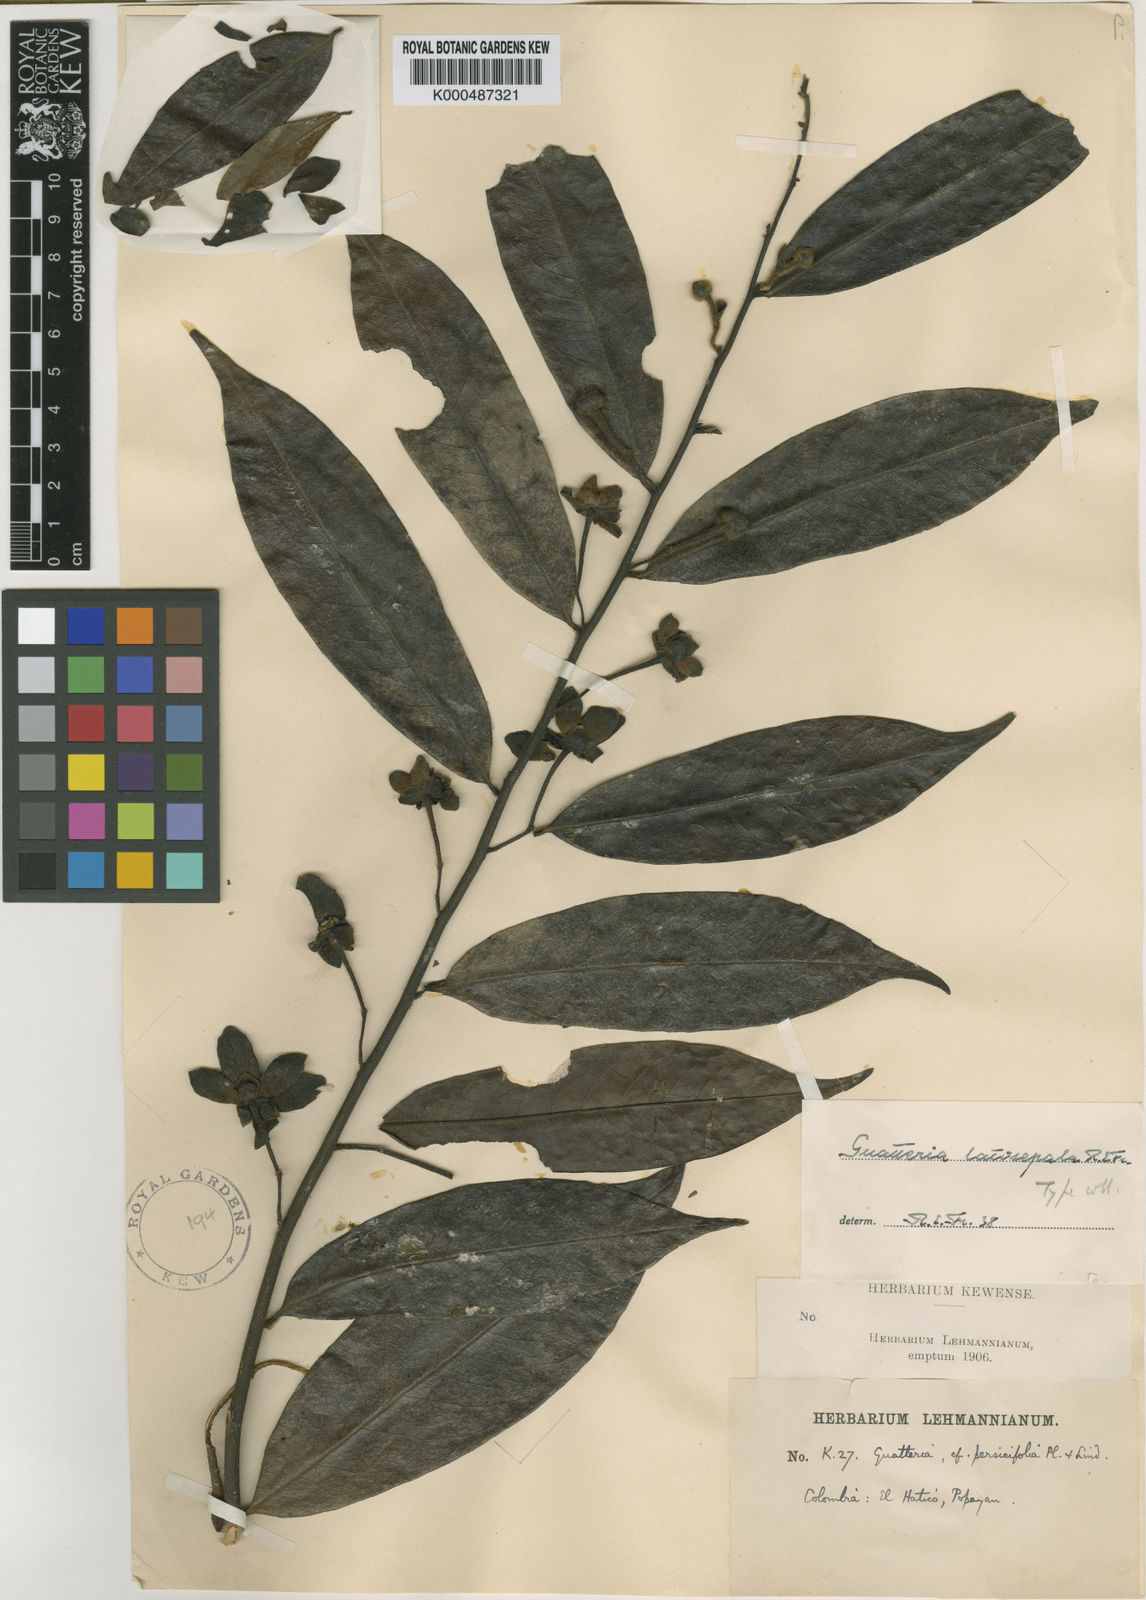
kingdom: Plantae
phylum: Tracheophyta
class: Magnoliopsida
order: Magnoliales
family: Annonaceae
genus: Guatteria
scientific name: Guatteria latisepala
